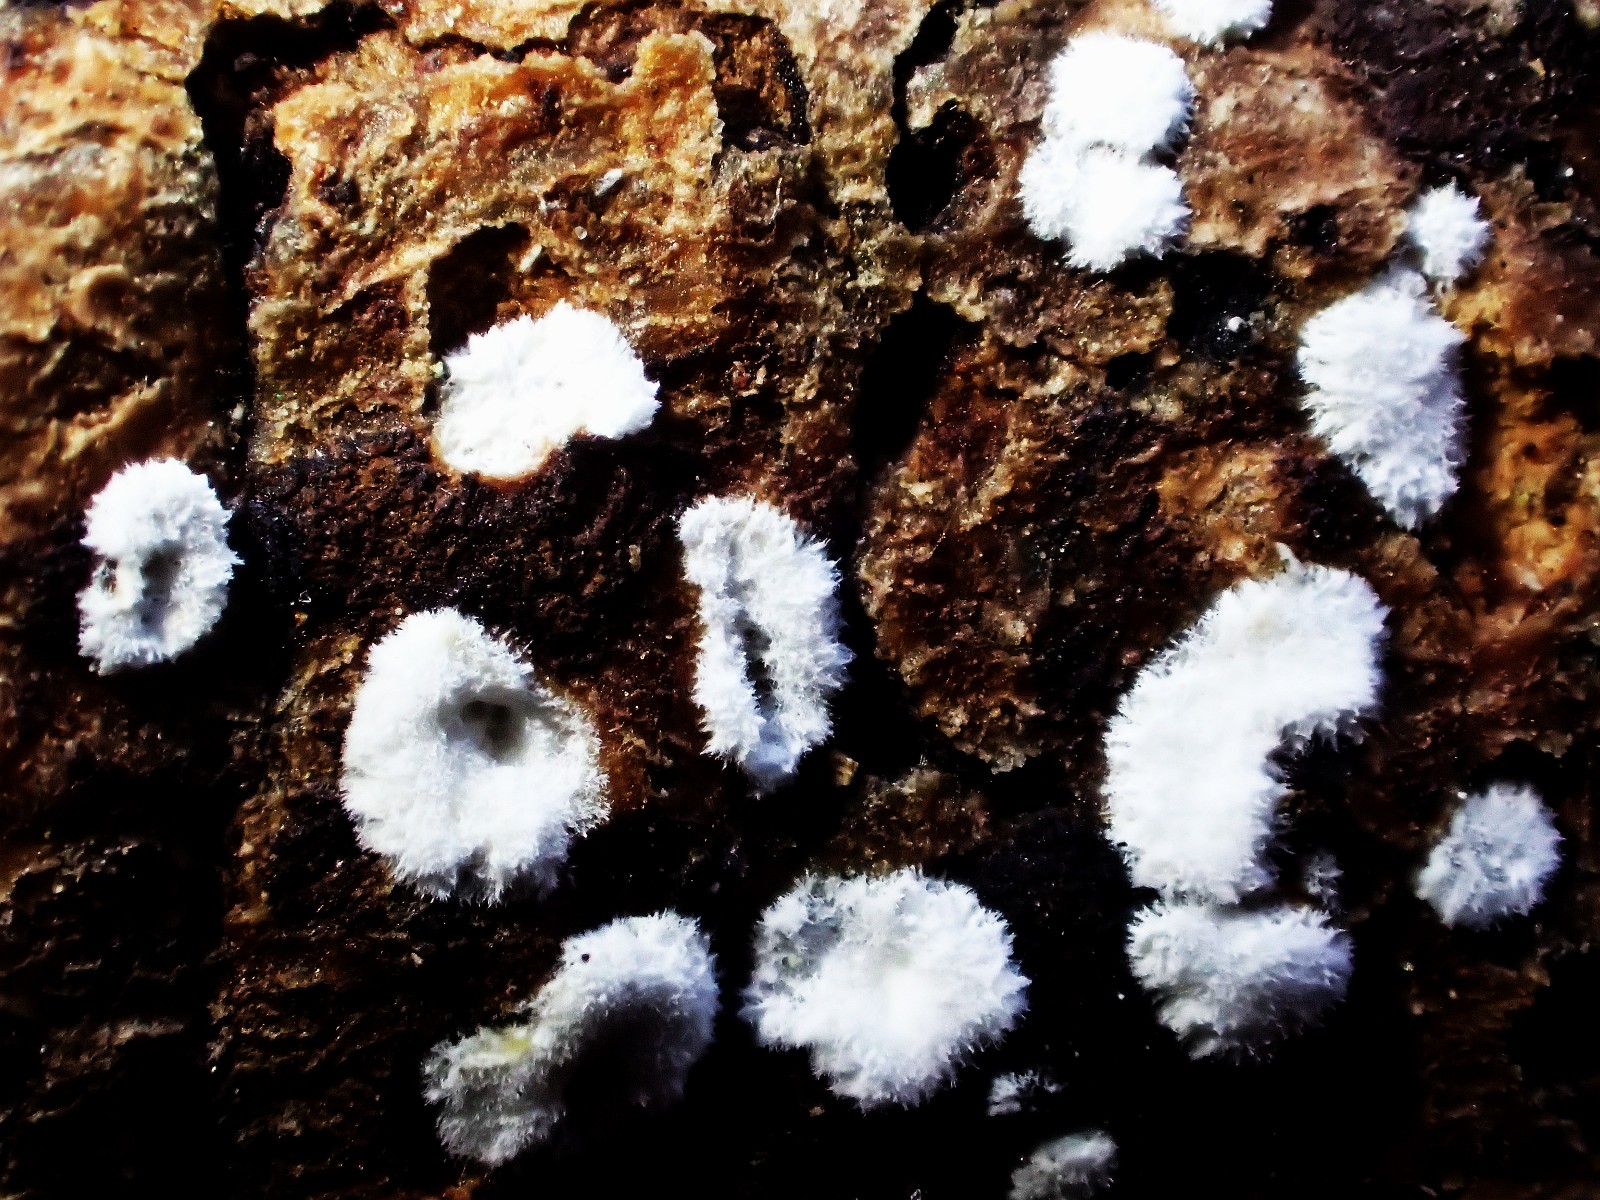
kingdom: Fungi
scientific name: Fungi
